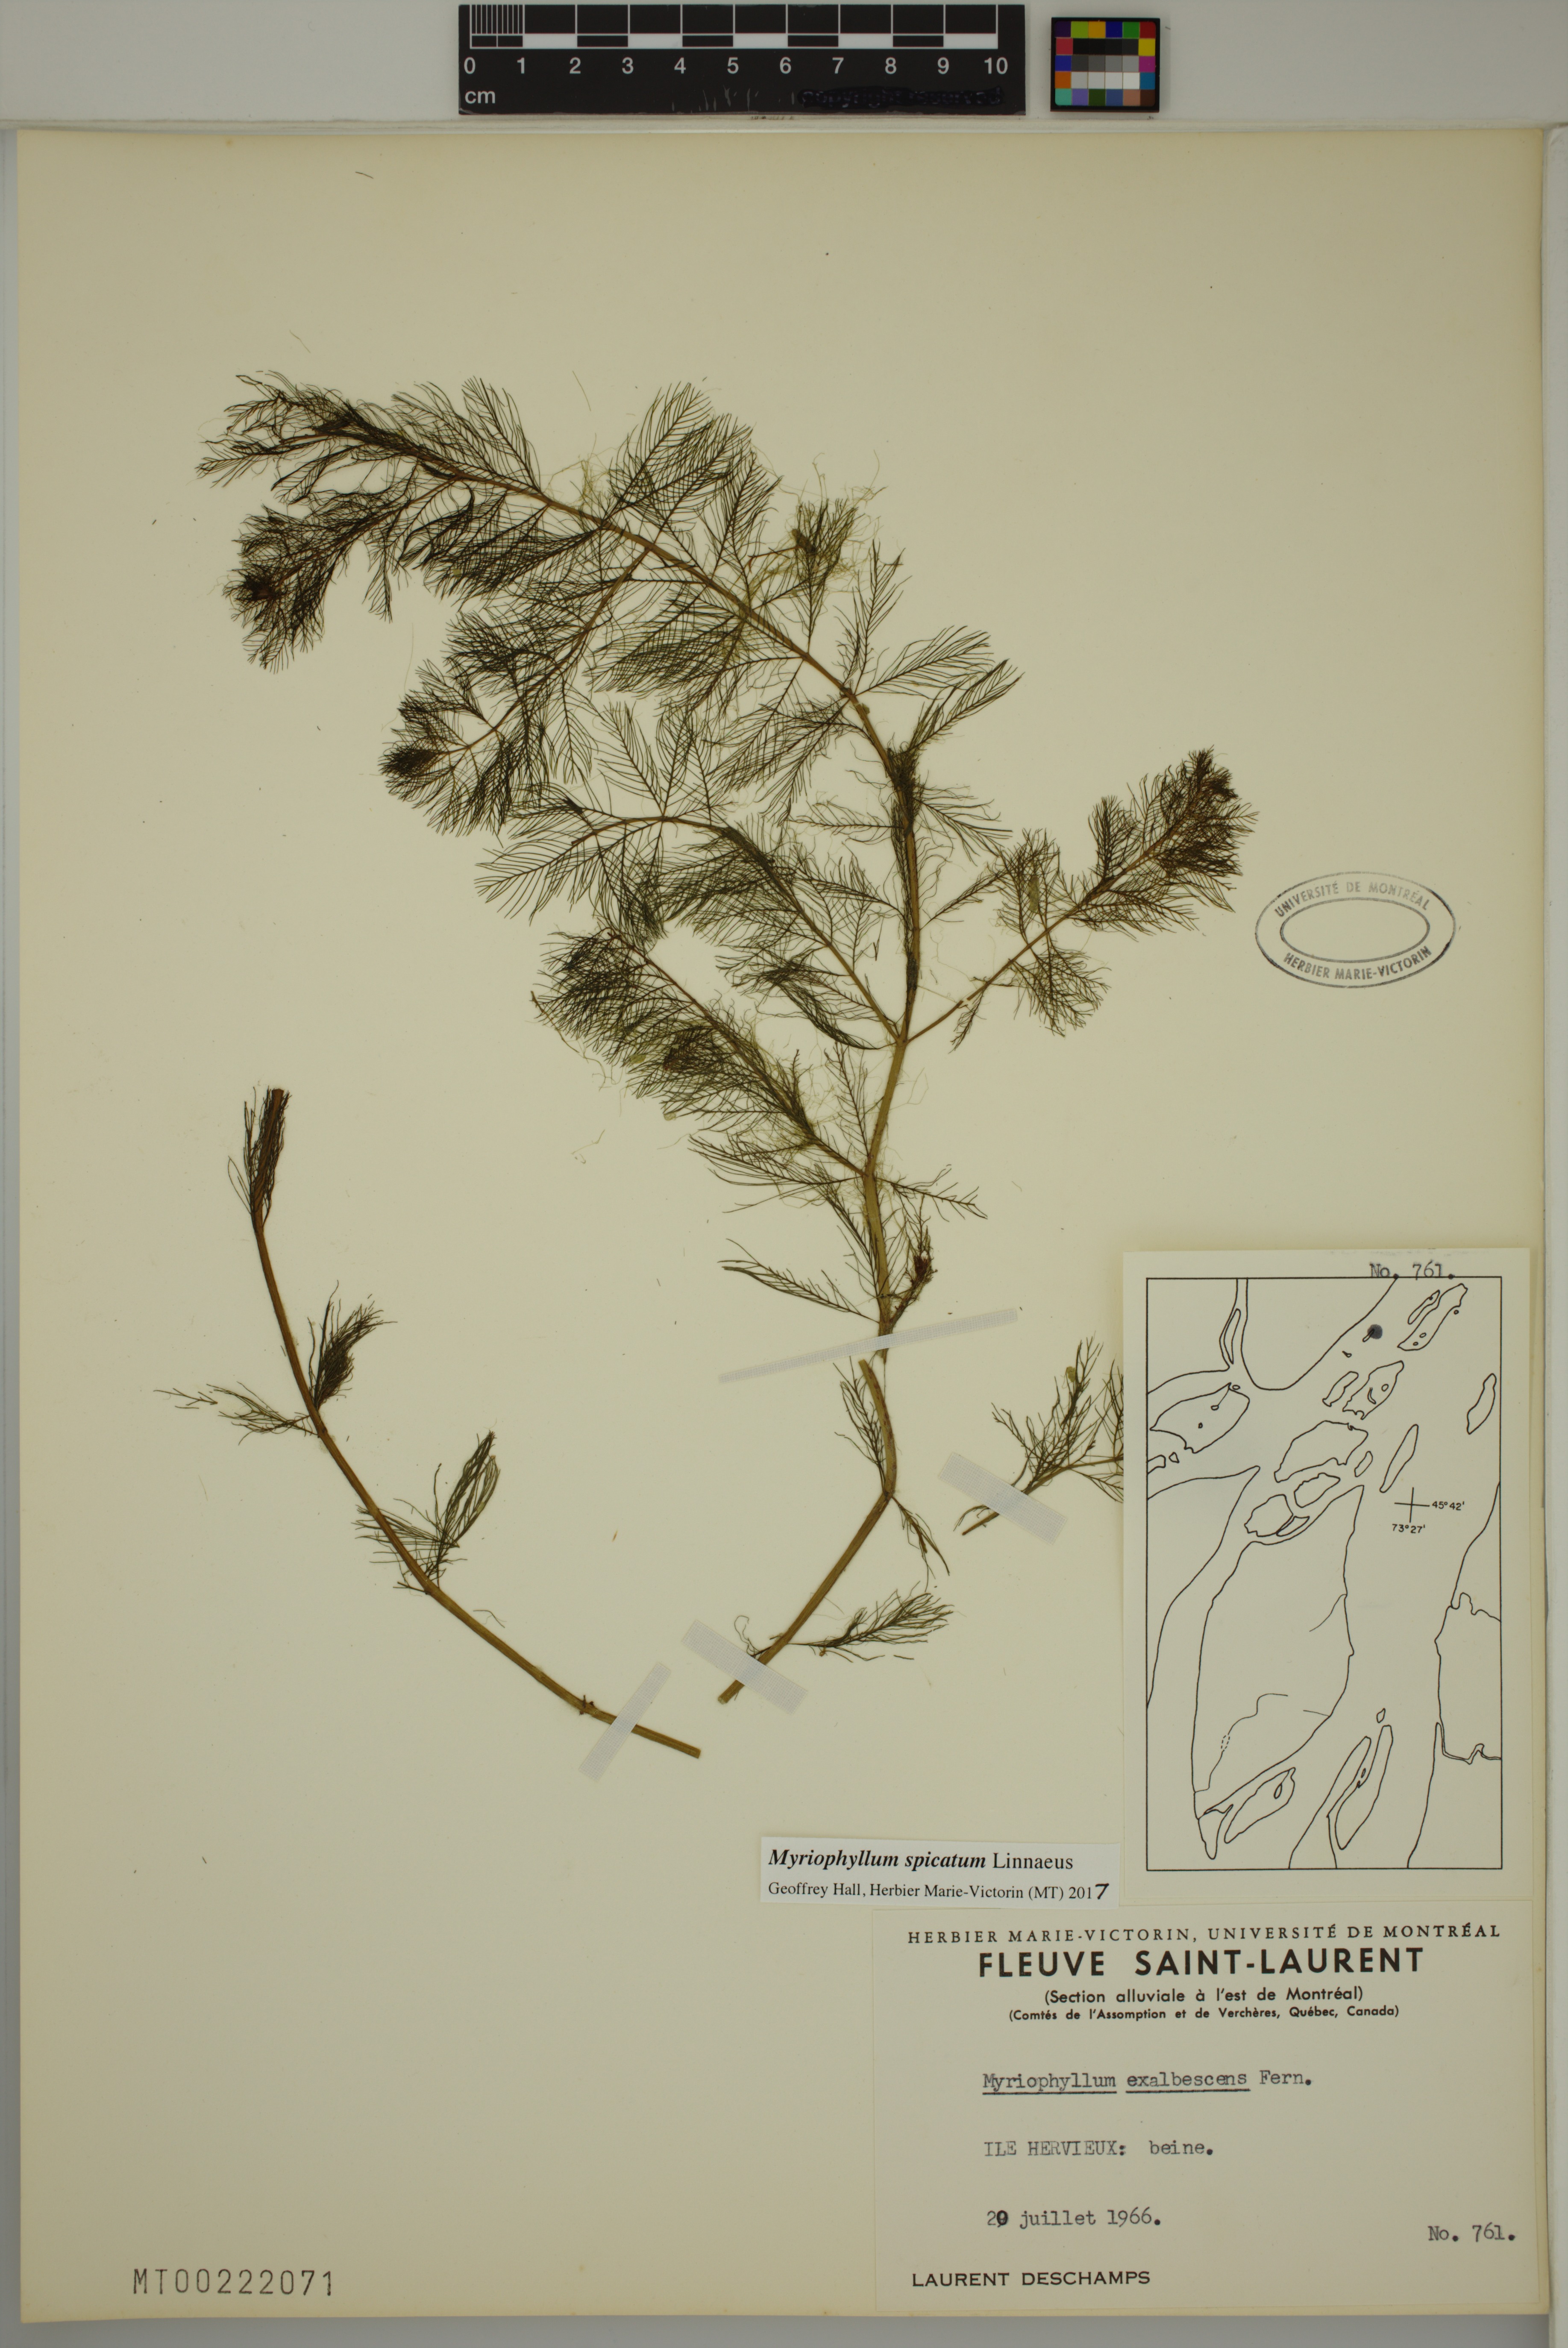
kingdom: Plantae
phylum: Tracheophyta
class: Magnoliopsida
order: Saxifragales
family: Haloragaceae
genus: Myriophyllum
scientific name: Myriophyllum spicatum
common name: Spiked water-milfoil
